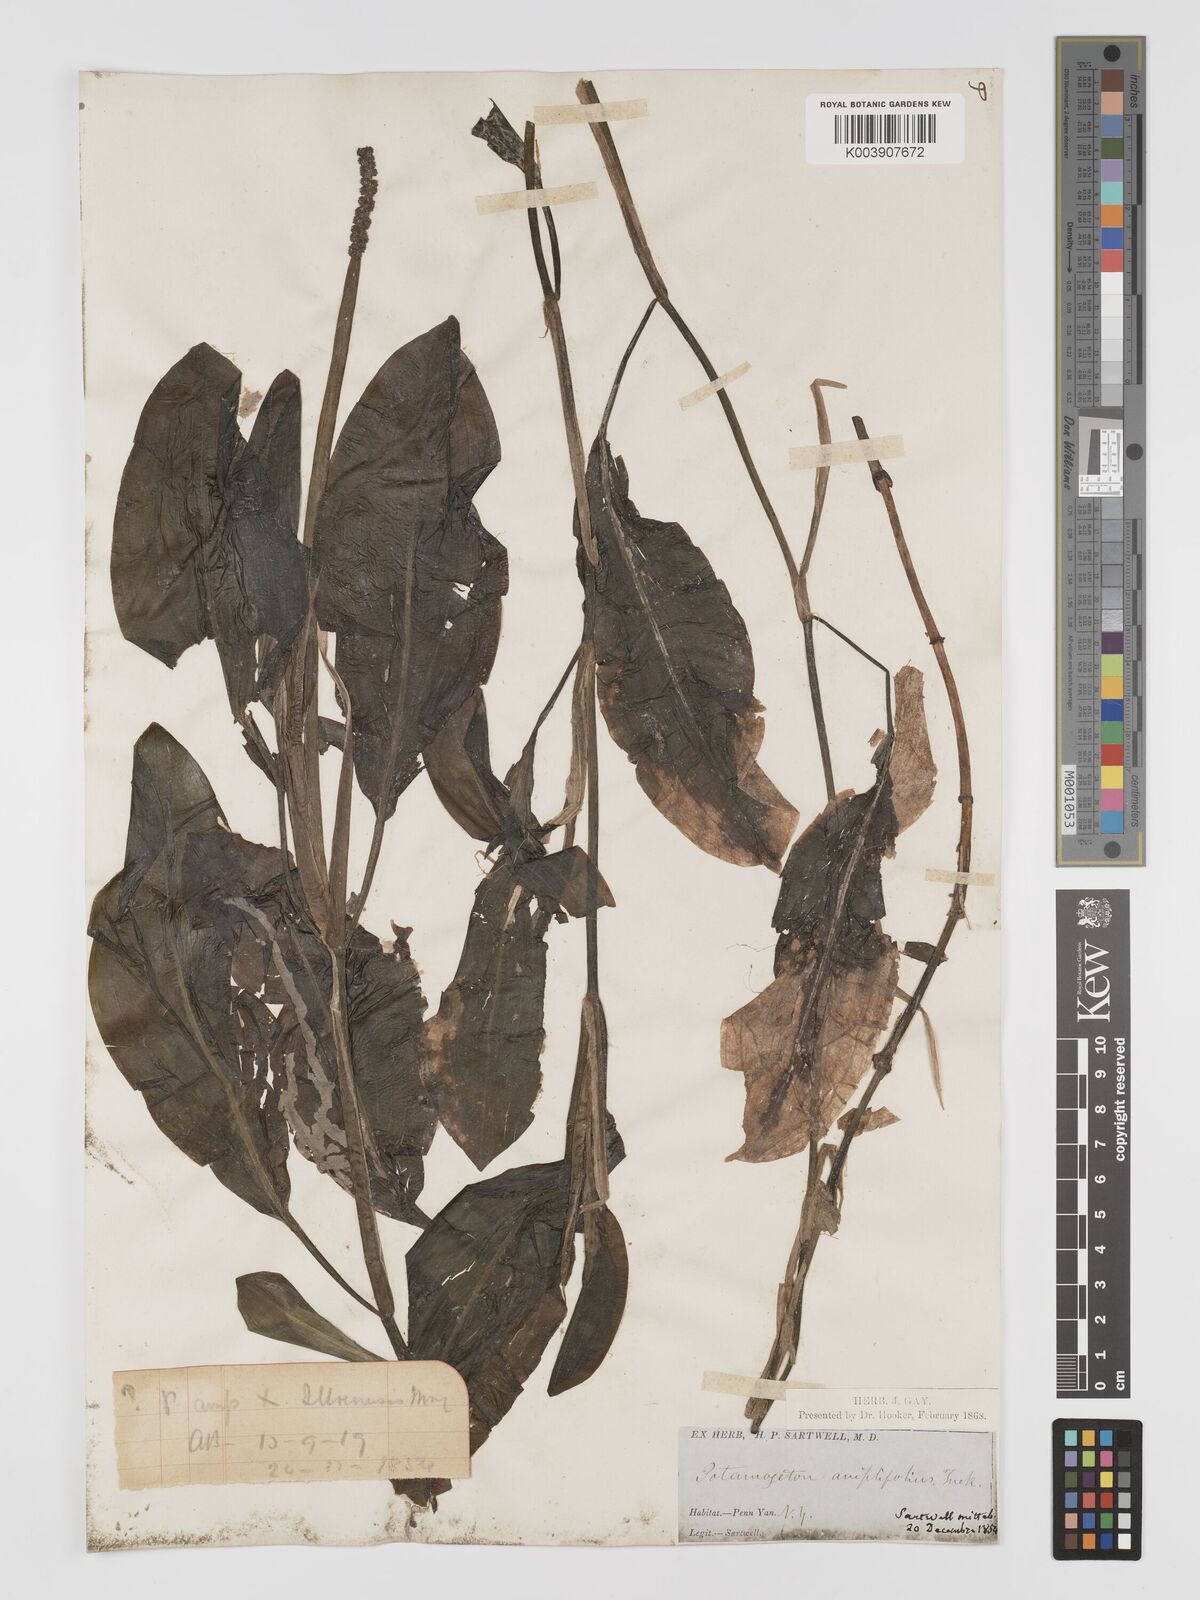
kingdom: Plantae
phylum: Tracheophyta
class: Liliopsida
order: Alismatales
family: Potamogetonaceae
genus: Potamogeton
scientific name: Potamogeton amplifolius
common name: Broad-leaved pondweed
